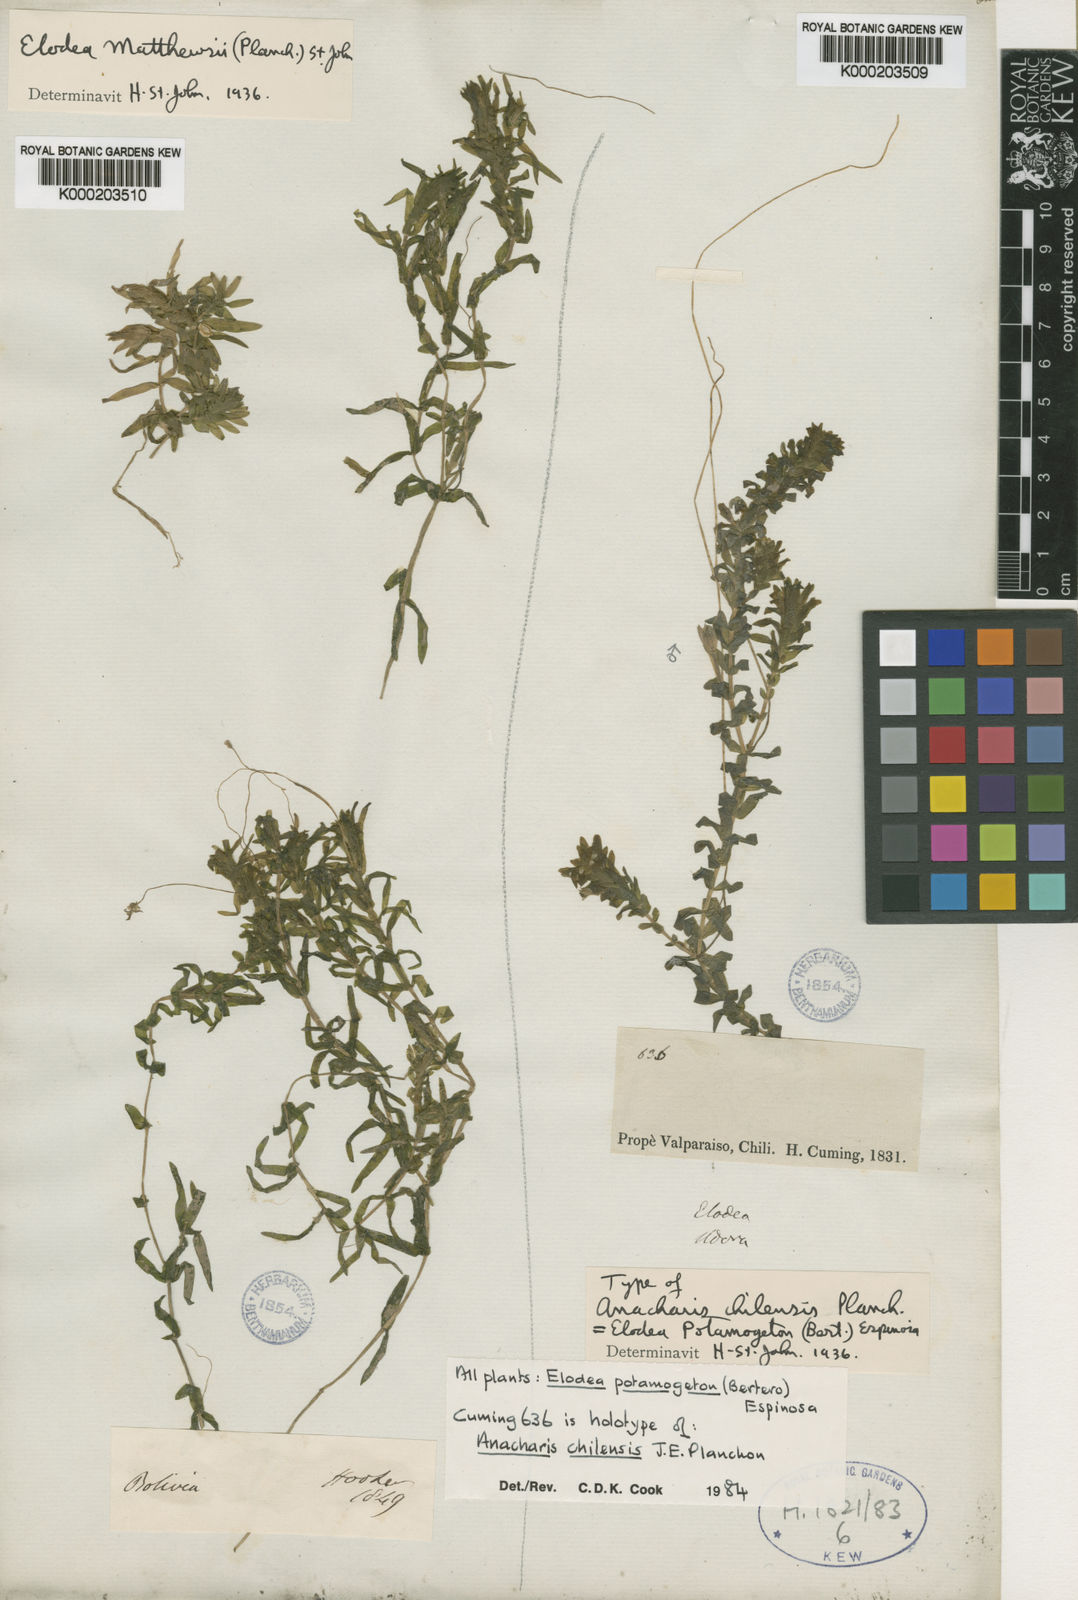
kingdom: Plantae
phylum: Tracheophyta
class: Liliopsida
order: Alismatales
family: Hydrocharitaceae
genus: Elodea
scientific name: Elodea potamogeton
